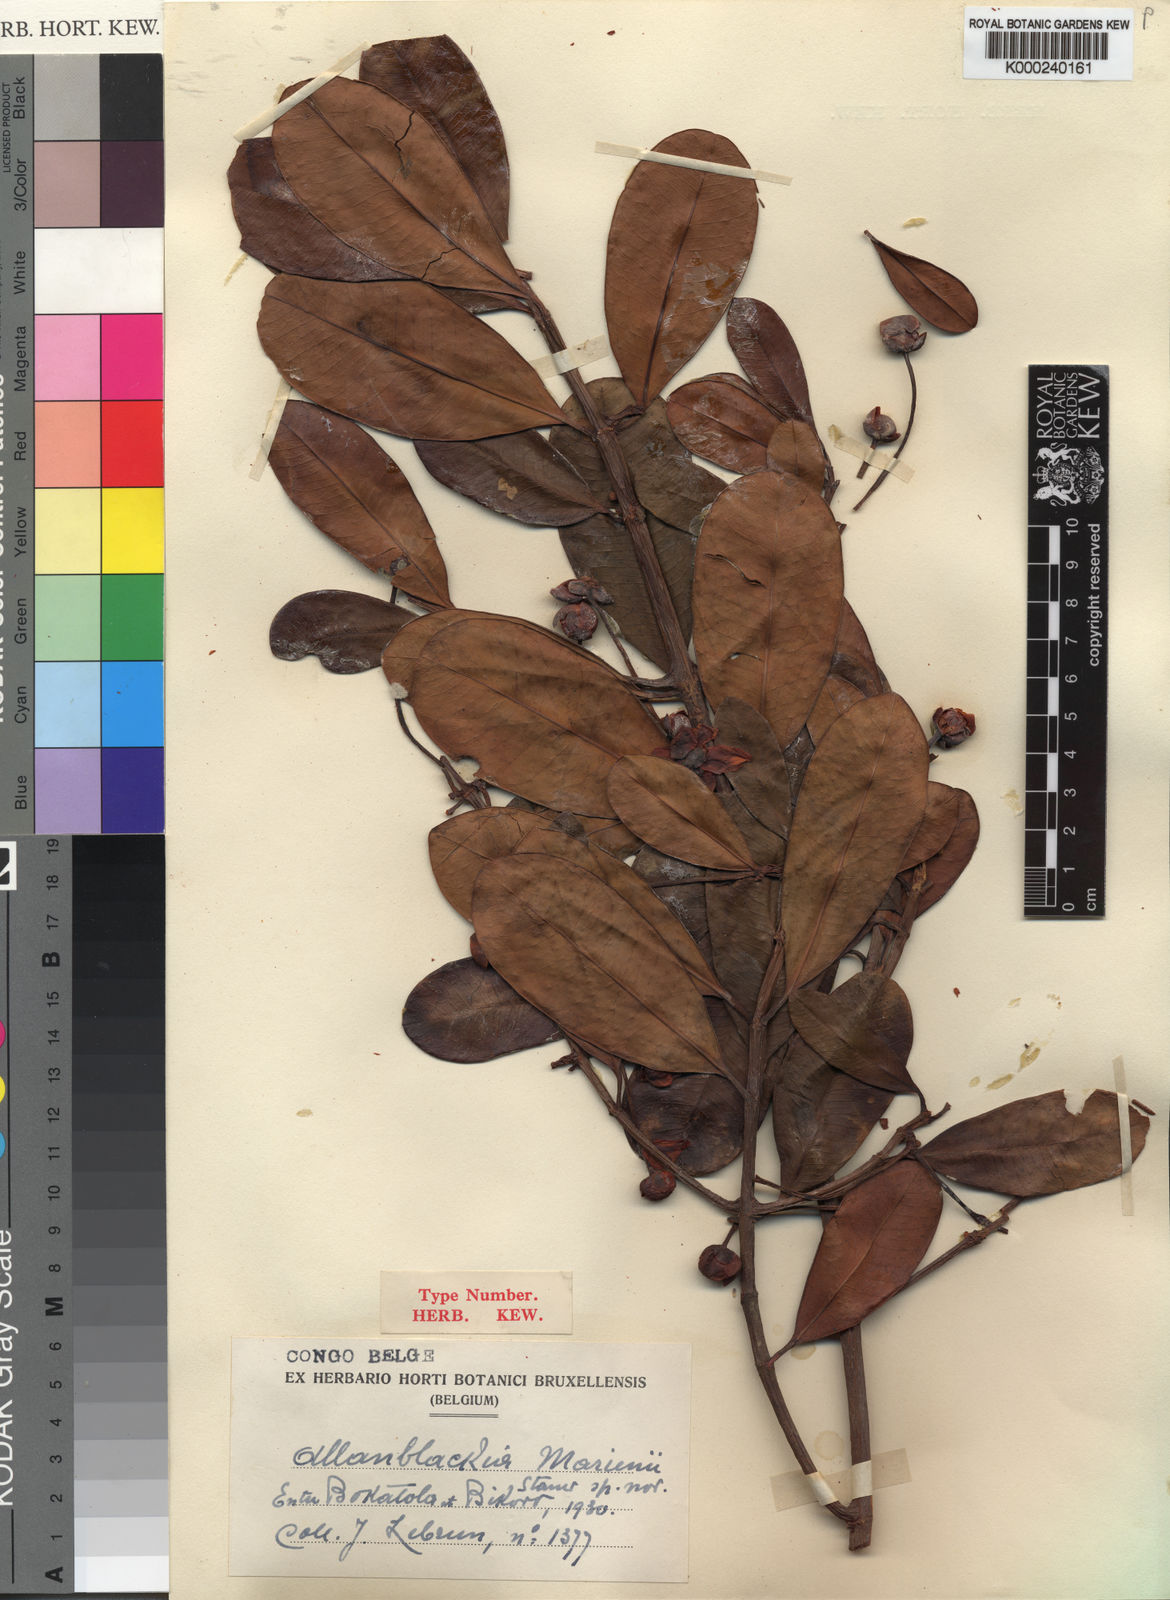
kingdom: Plantae
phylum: Tracheophyta
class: Magnoliopsida
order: Malpighiales
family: Clusiaceae
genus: Allanblackia
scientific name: Allanblackia marienii
